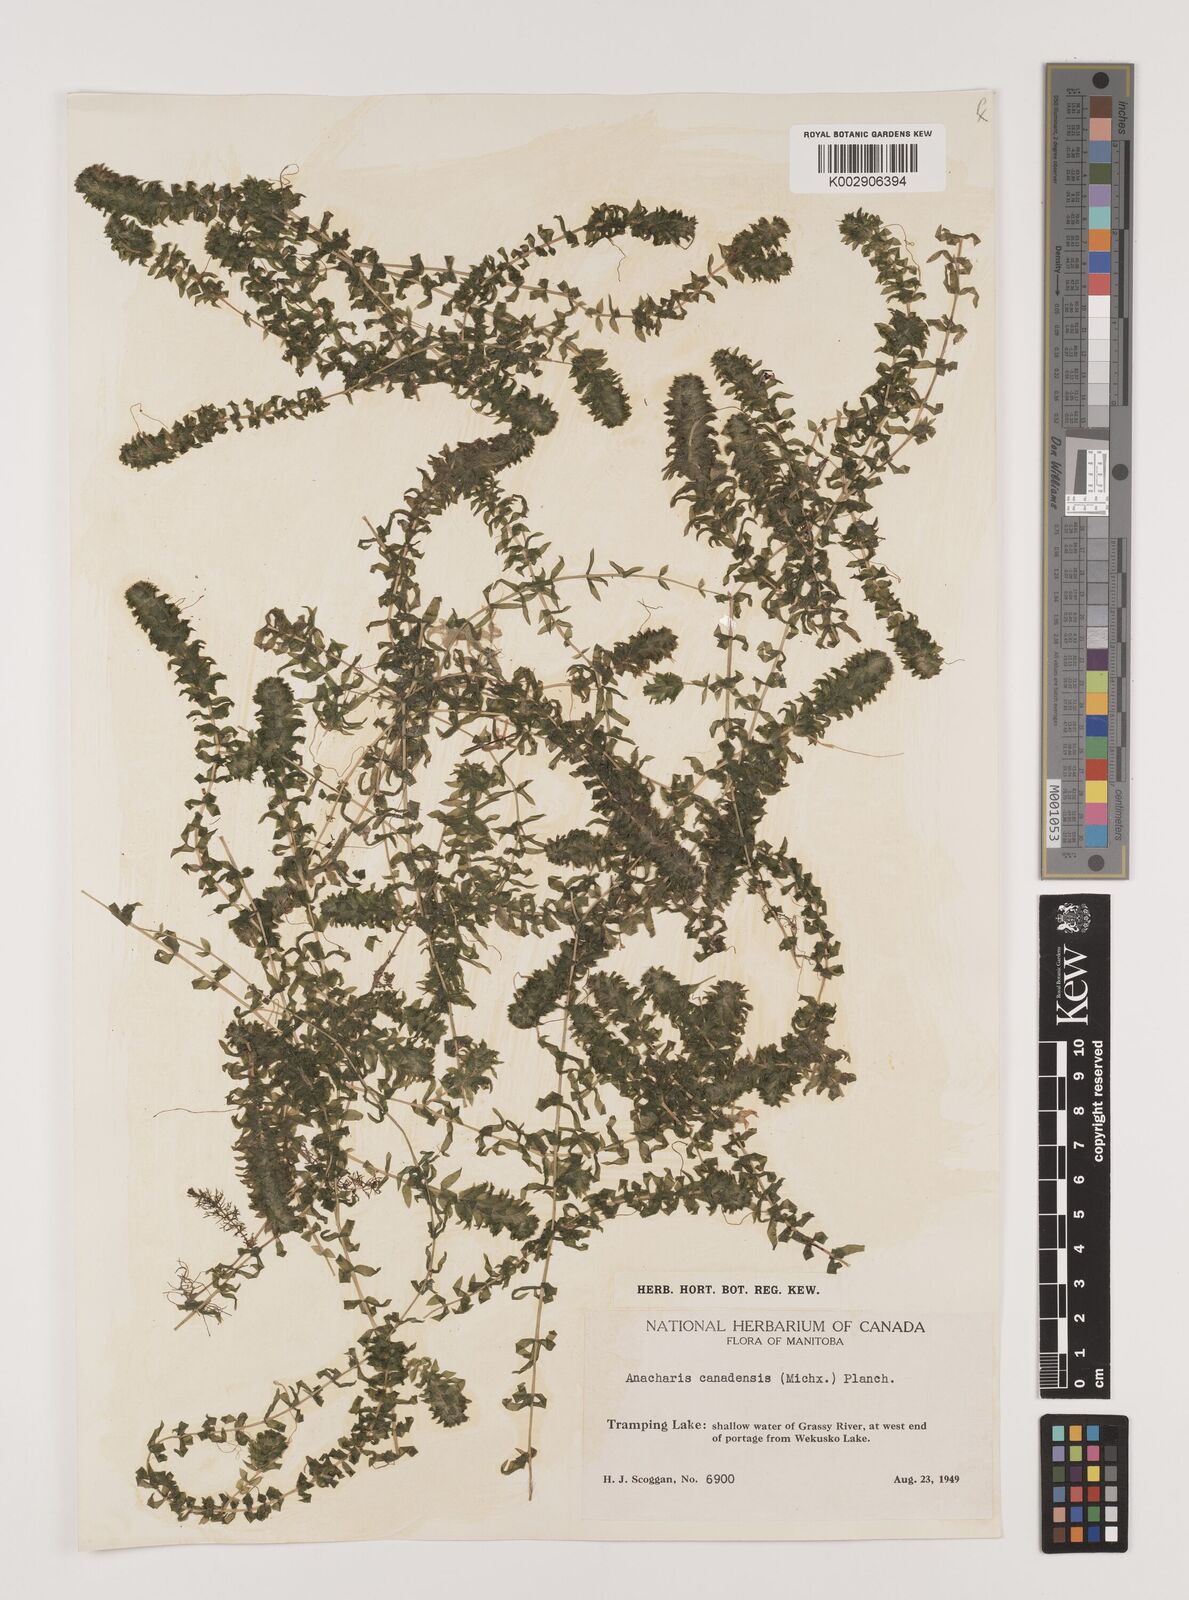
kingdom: Plantae
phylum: Tracheophyta
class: Liliopsida
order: Alismatales
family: Hydrocharitaceae
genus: Elodea
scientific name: Elodea canadensis
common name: Canadian waterweed
